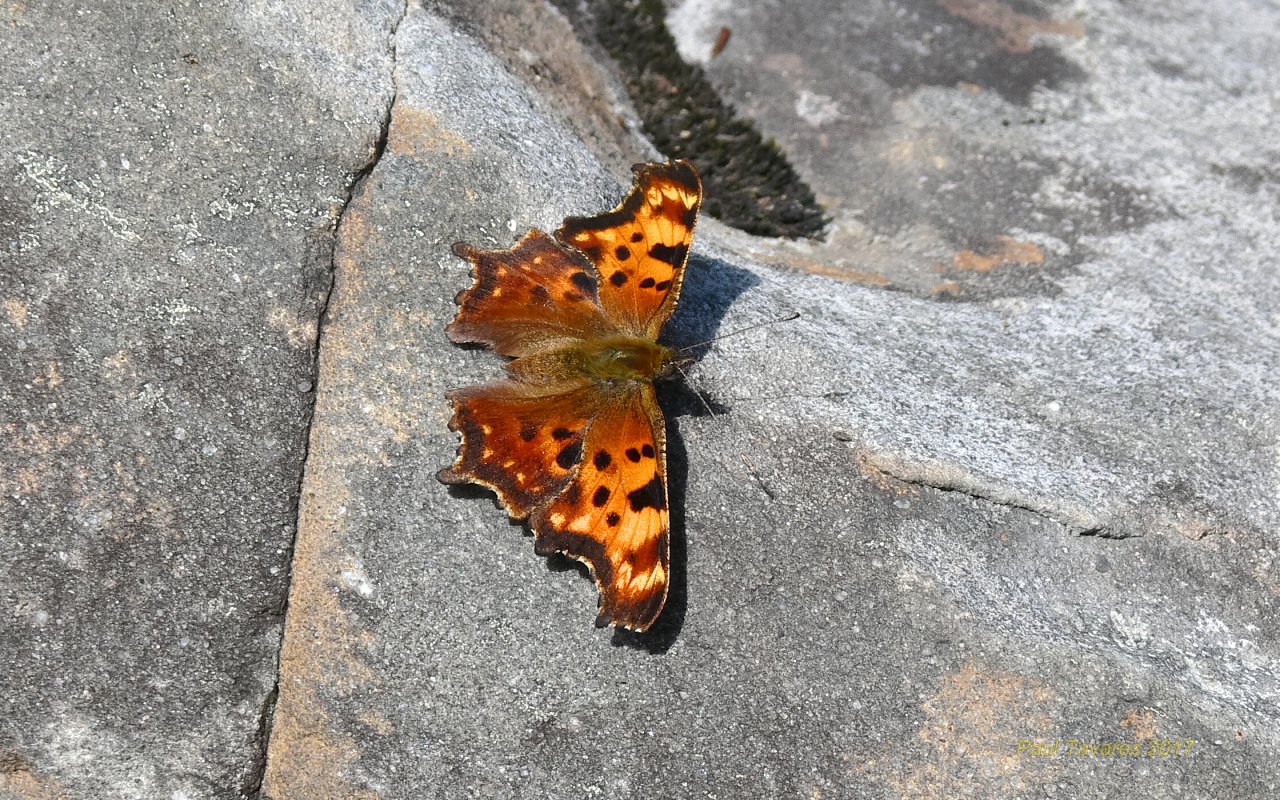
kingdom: Animalia
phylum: Arthropoda
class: Insecta
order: Lepidoptera
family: Nymphalidae
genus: Polygonia
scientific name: Polygonia faunus
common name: Green Comma
